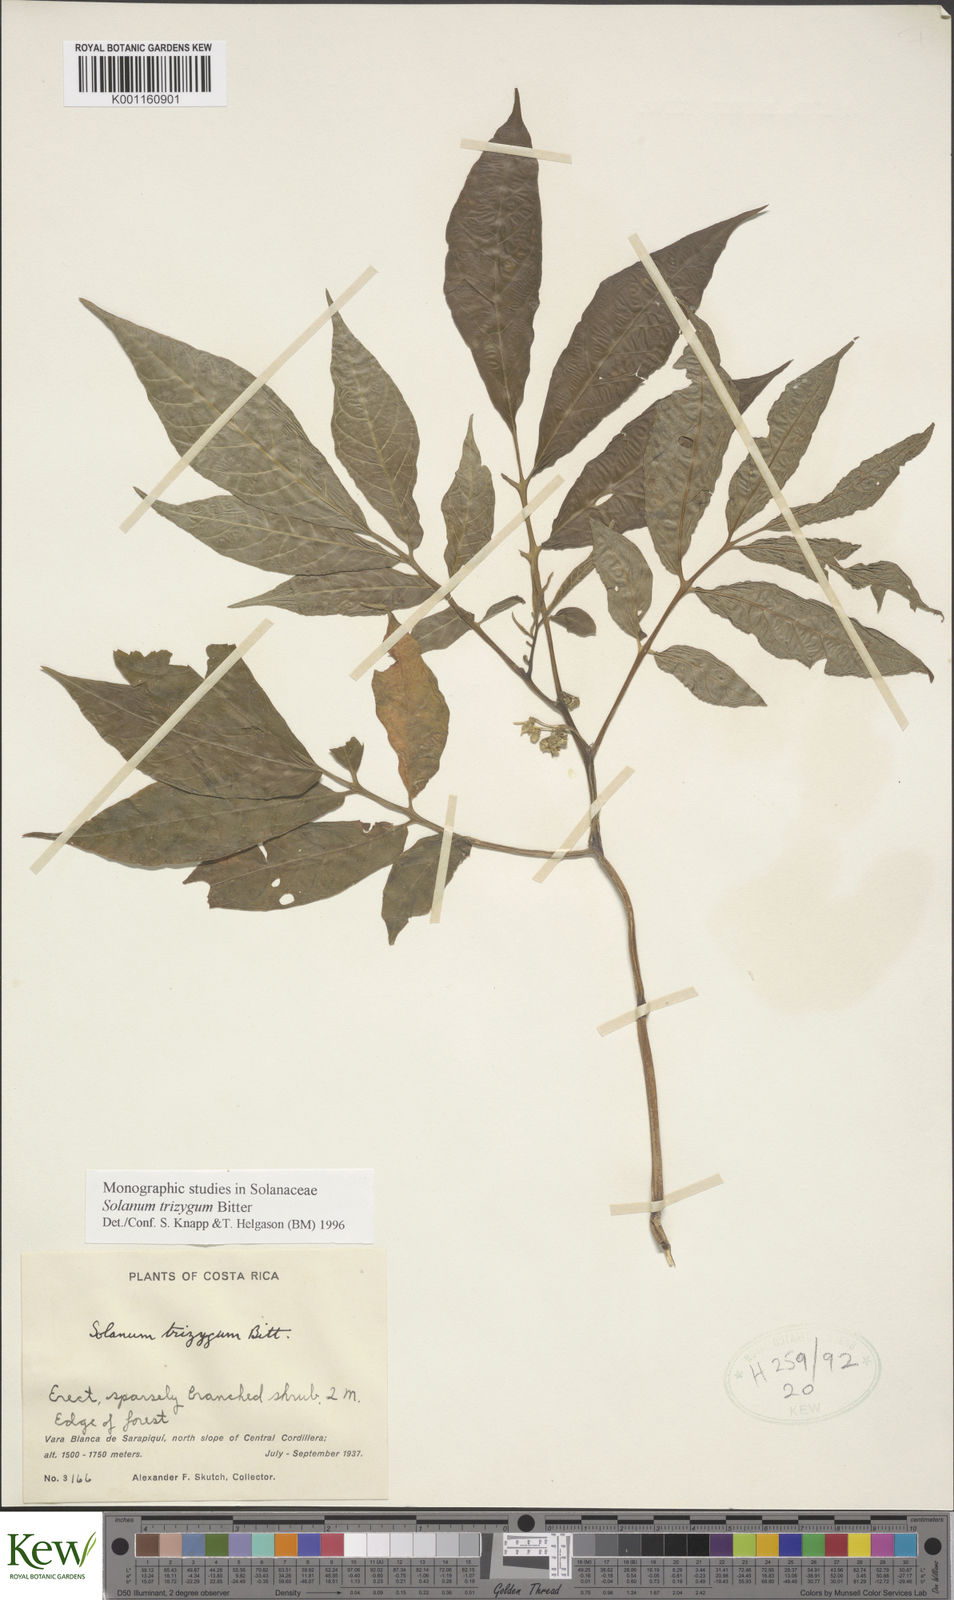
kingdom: Plantae
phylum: Tracheophyta
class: Magnoliopsida
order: Solanales
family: Solanaceae
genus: Solanum
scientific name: Solanum trizygum
